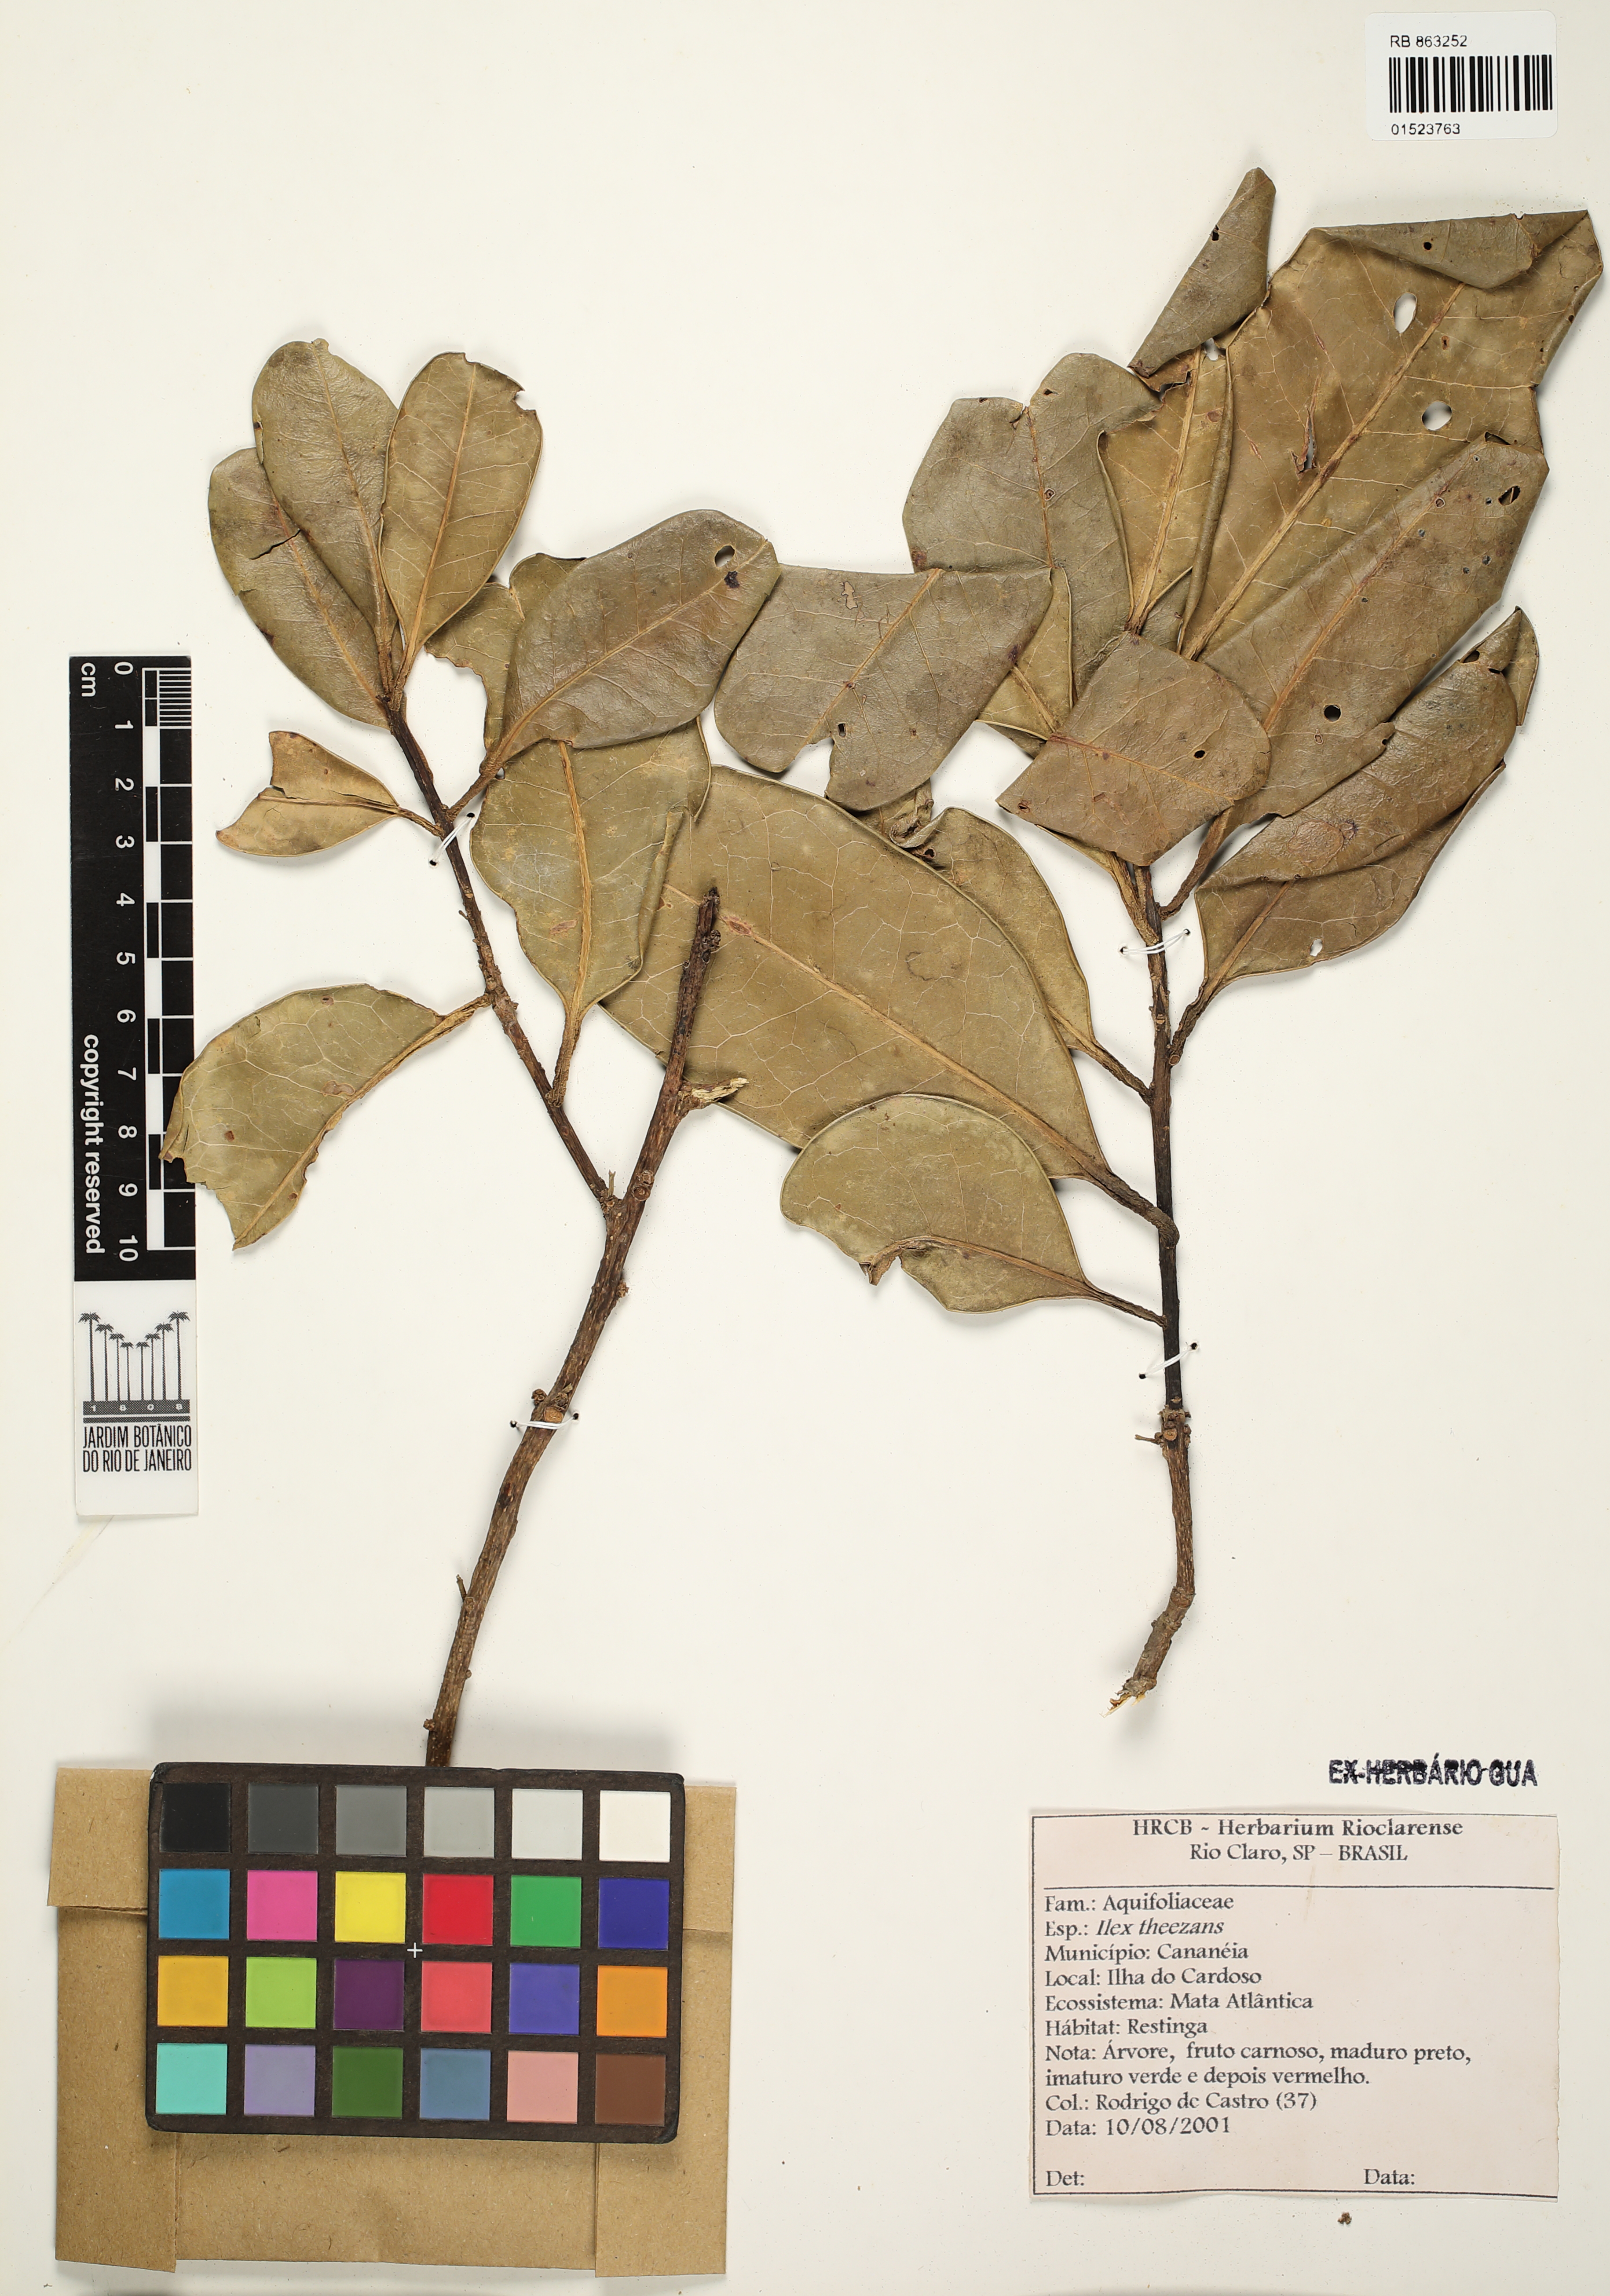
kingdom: Plantae
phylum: Tracheophyta
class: Magnoliopsida
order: Aquifoliales
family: Aquifoliaceae
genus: Ilex
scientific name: Ilex theezans
